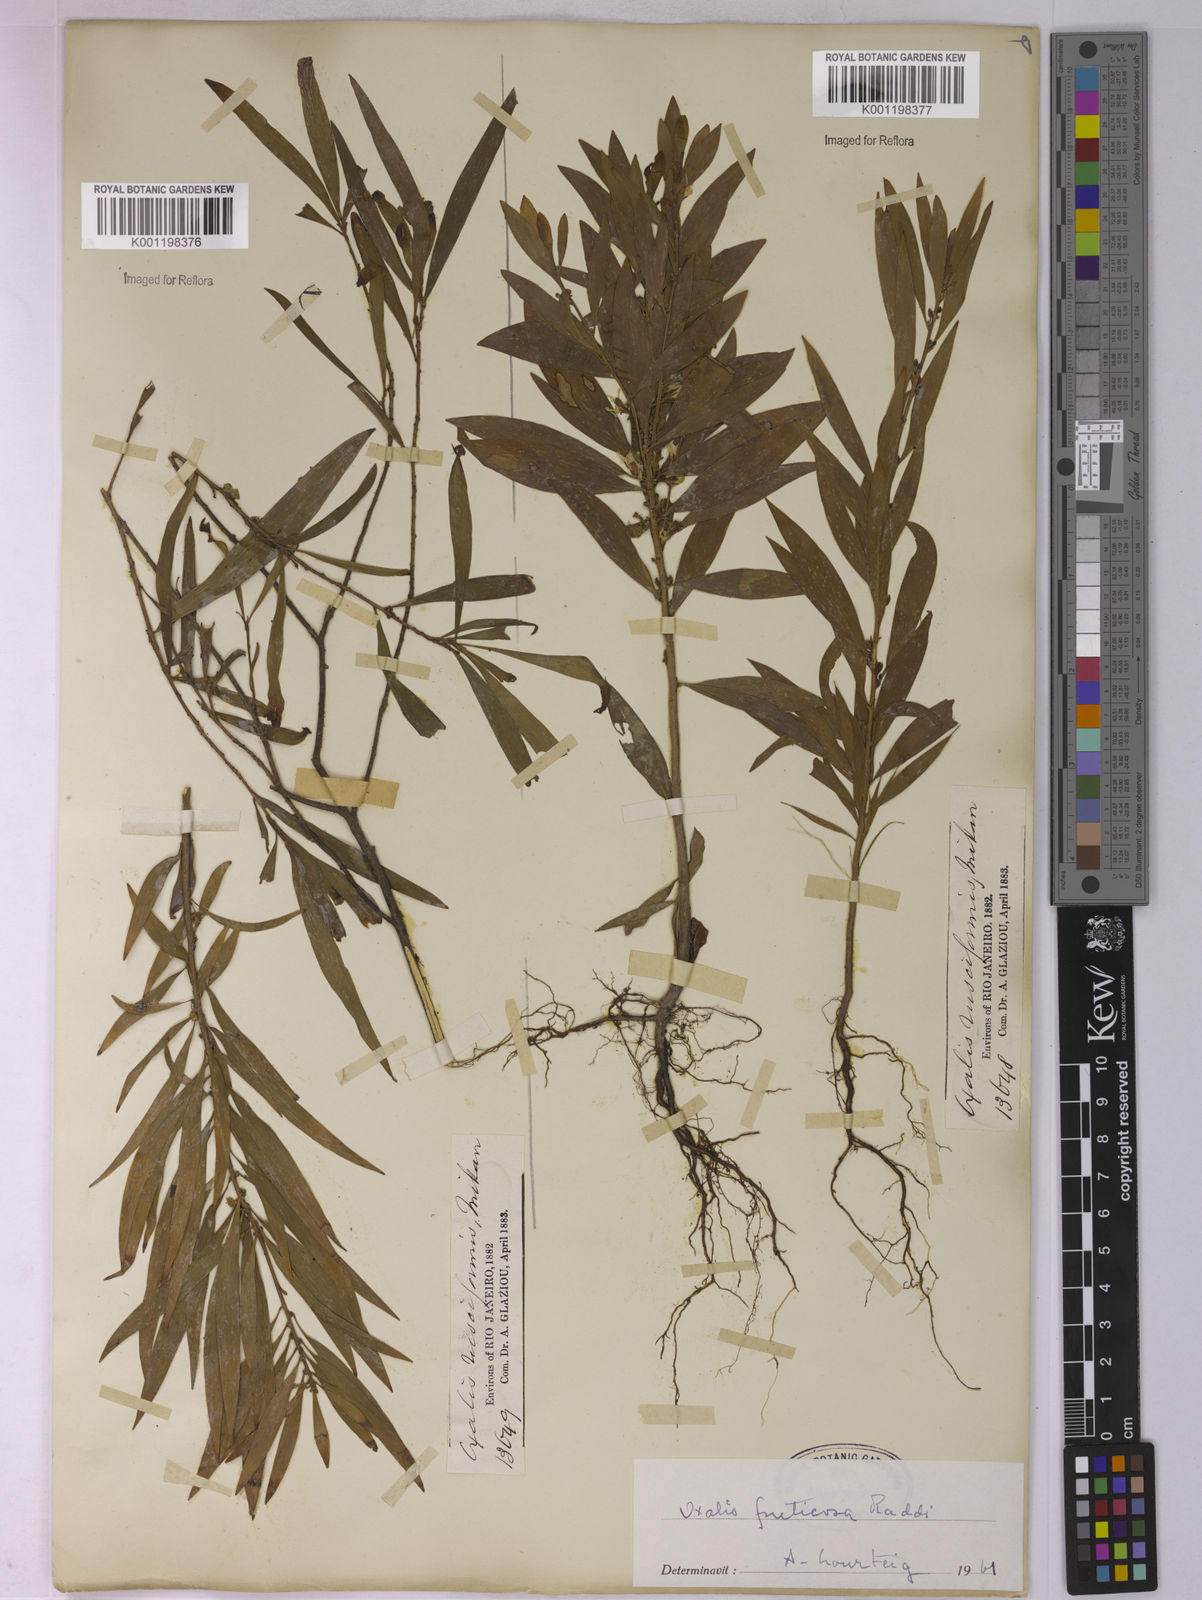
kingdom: Plantae
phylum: Tracheophyta
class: Magnoliopsida
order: Oxalidales
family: Oxalidaceae
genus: Oxalis
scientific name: Oxalis fruticosa
